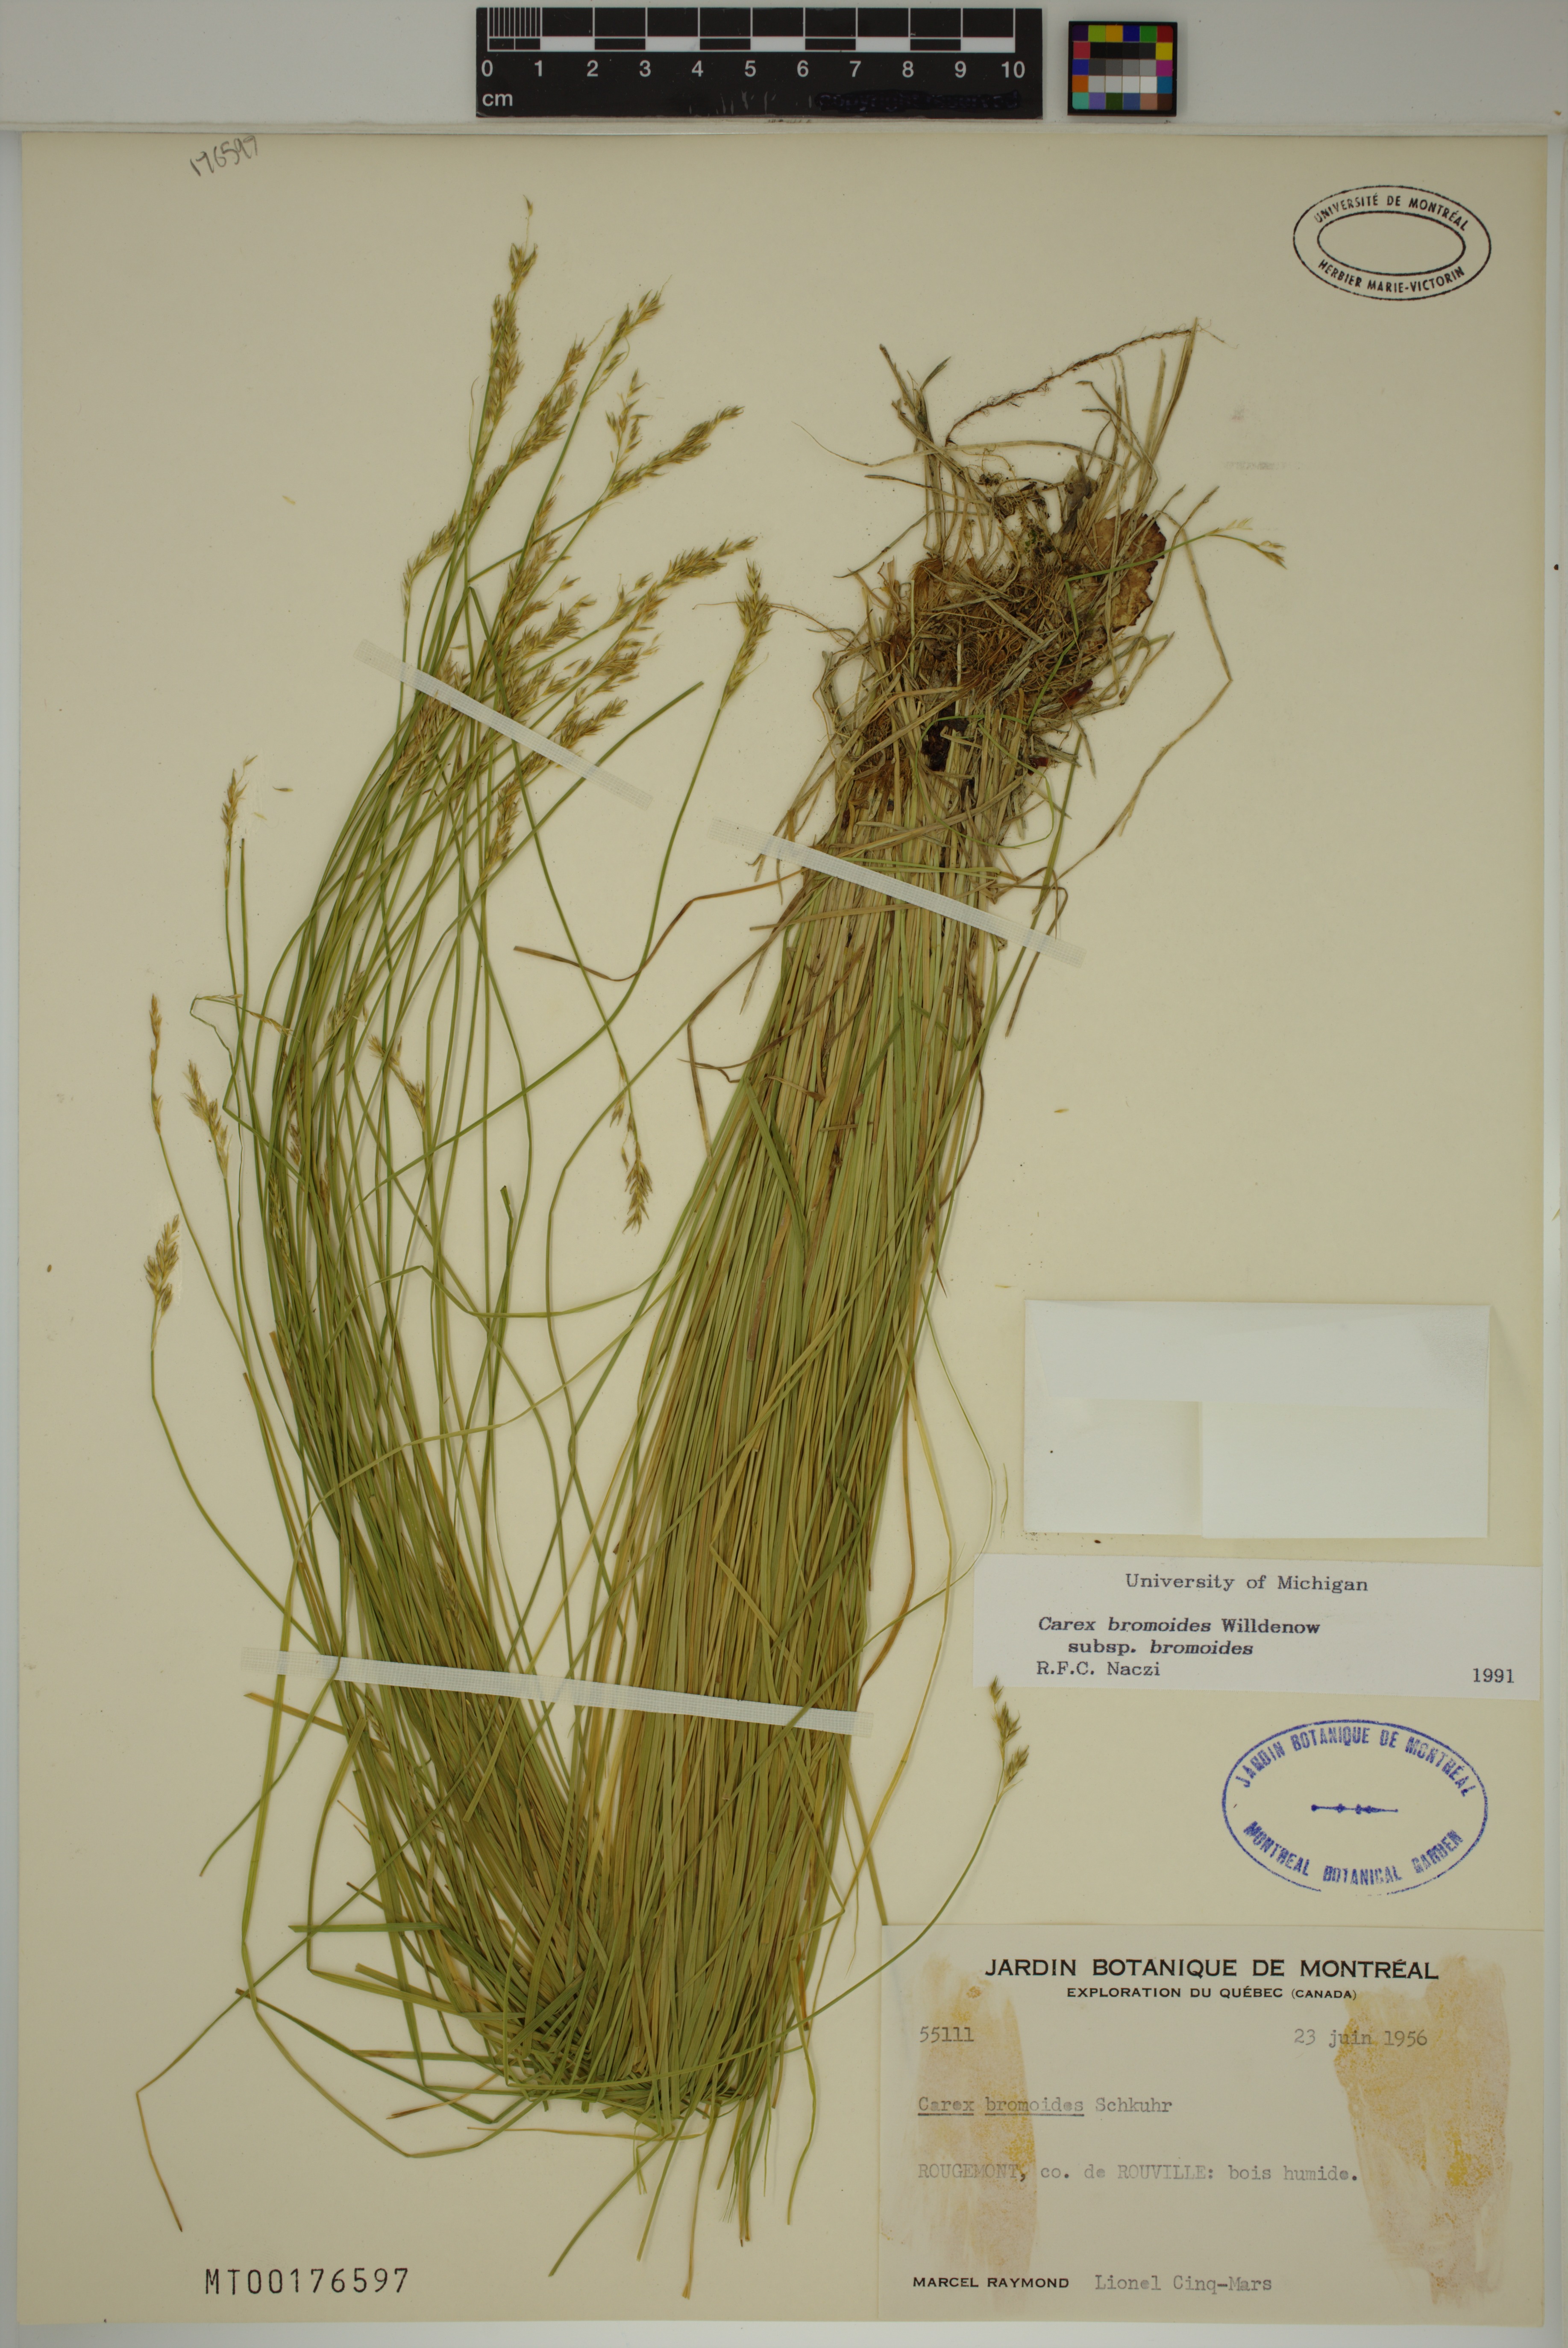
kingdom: Plantae
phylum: Tracheophyta
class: Liliopsida
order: Poales
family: Cyperaceae
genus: Carex
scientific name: Carex bromoides
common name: Brome hummock sedge
